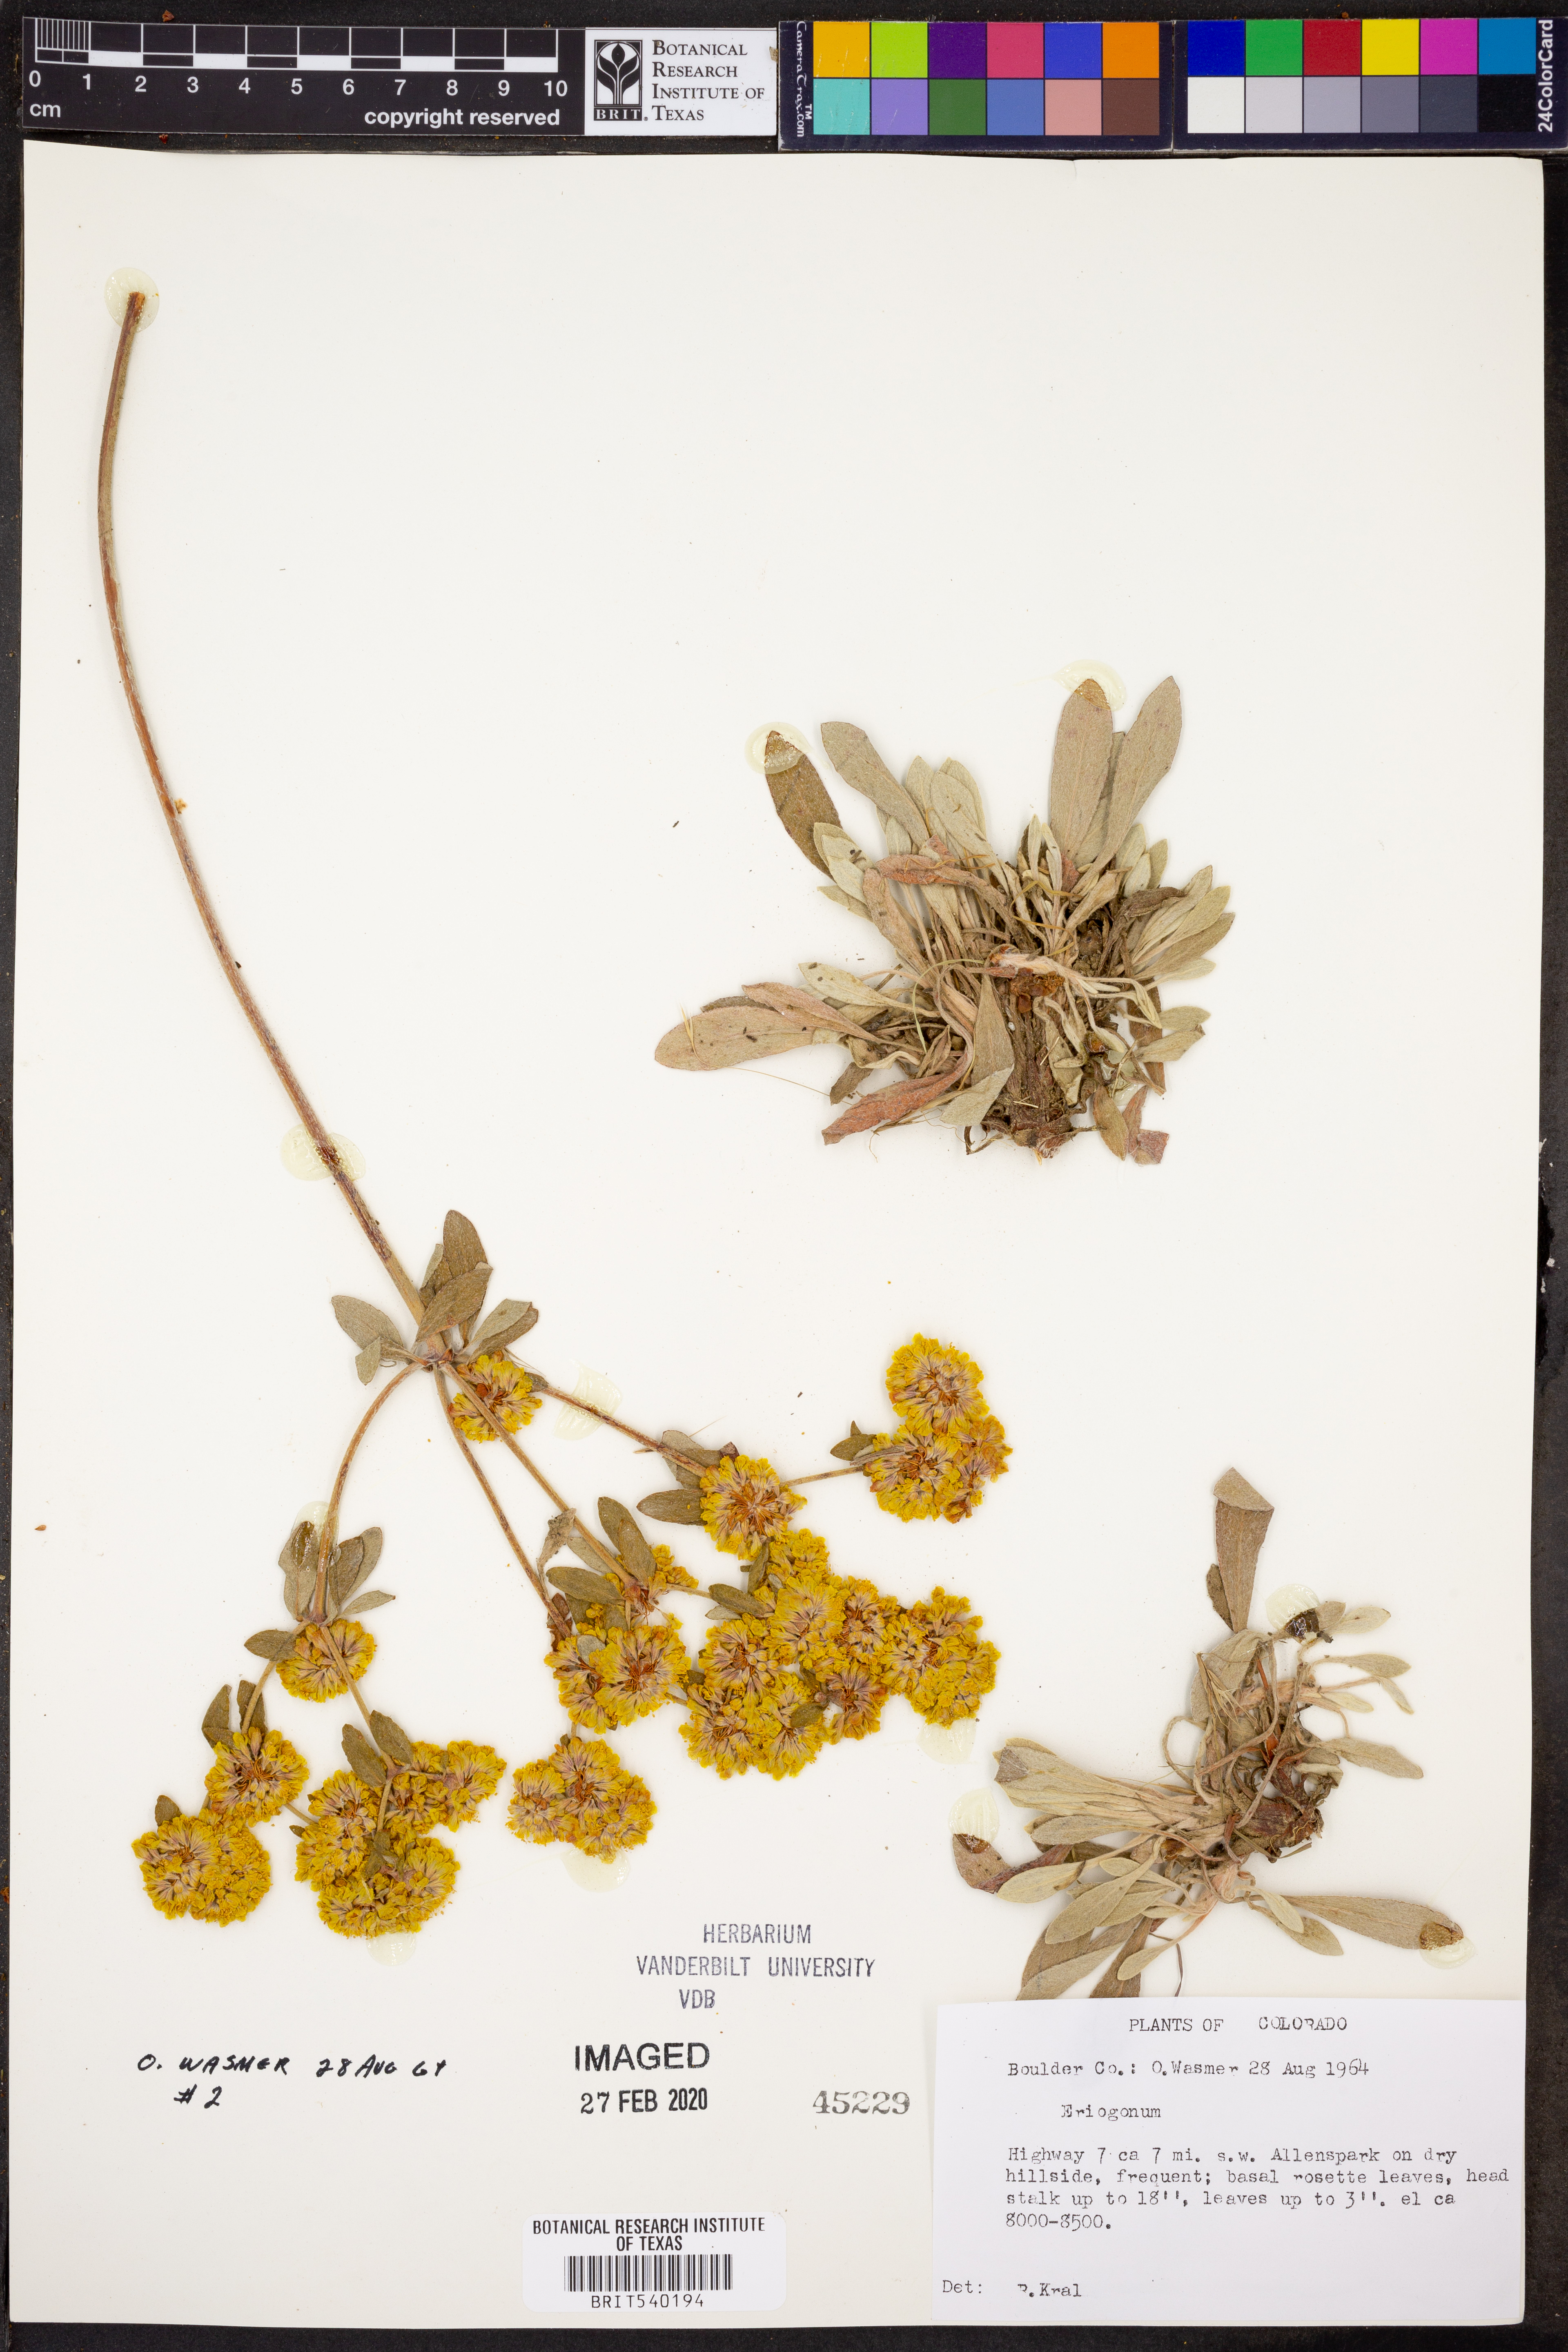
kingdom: Plantae
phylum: Tracheophyta
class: Magnoliopsida
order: Caryophyllales
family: Polygonaceae
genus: Eriogonum
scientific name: Eriogonum
